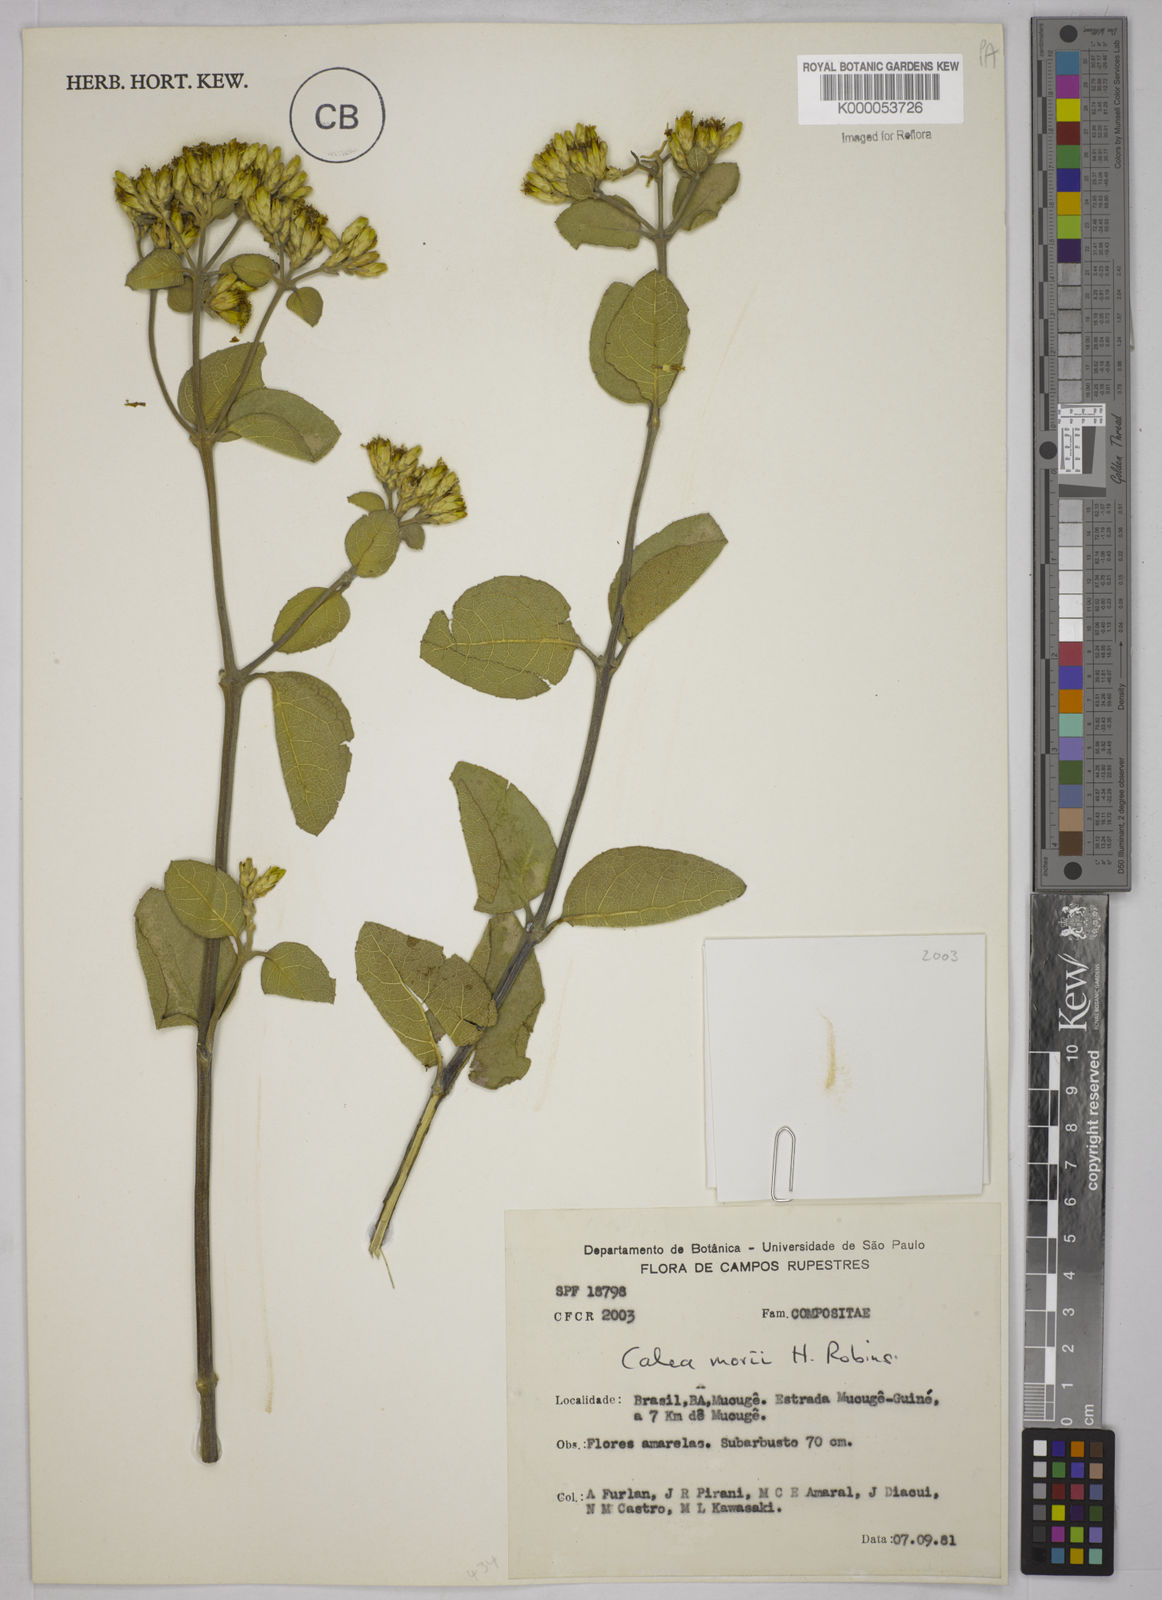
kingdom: Plantae
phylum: Tracheophyta
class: Magnoliopsida
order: Asterales
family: Asteraceae
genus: Calea
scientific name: Calea morii
